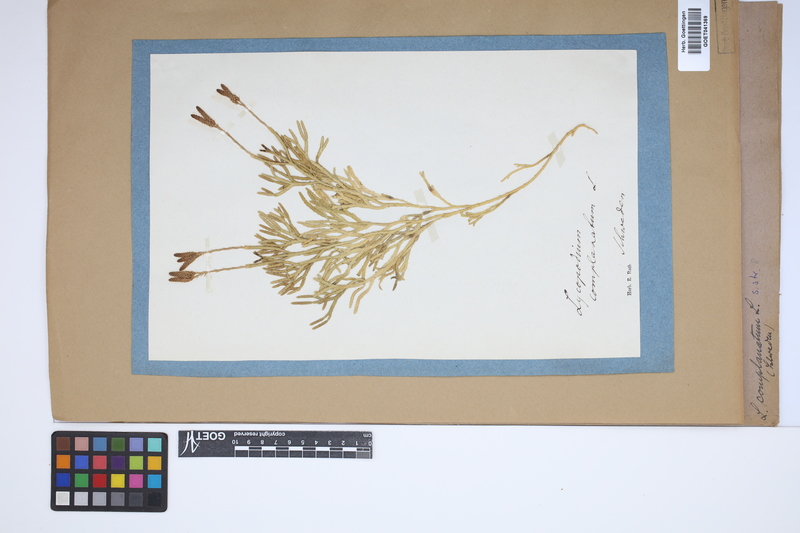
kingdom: Plantae
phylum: Tracheophyta
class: Lycopodiopsida
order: Lycopodiales
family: Lycopodiaceae
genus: Diphasiastrum
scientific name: Diphasiastrum complanatum
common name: Northern running-pine
